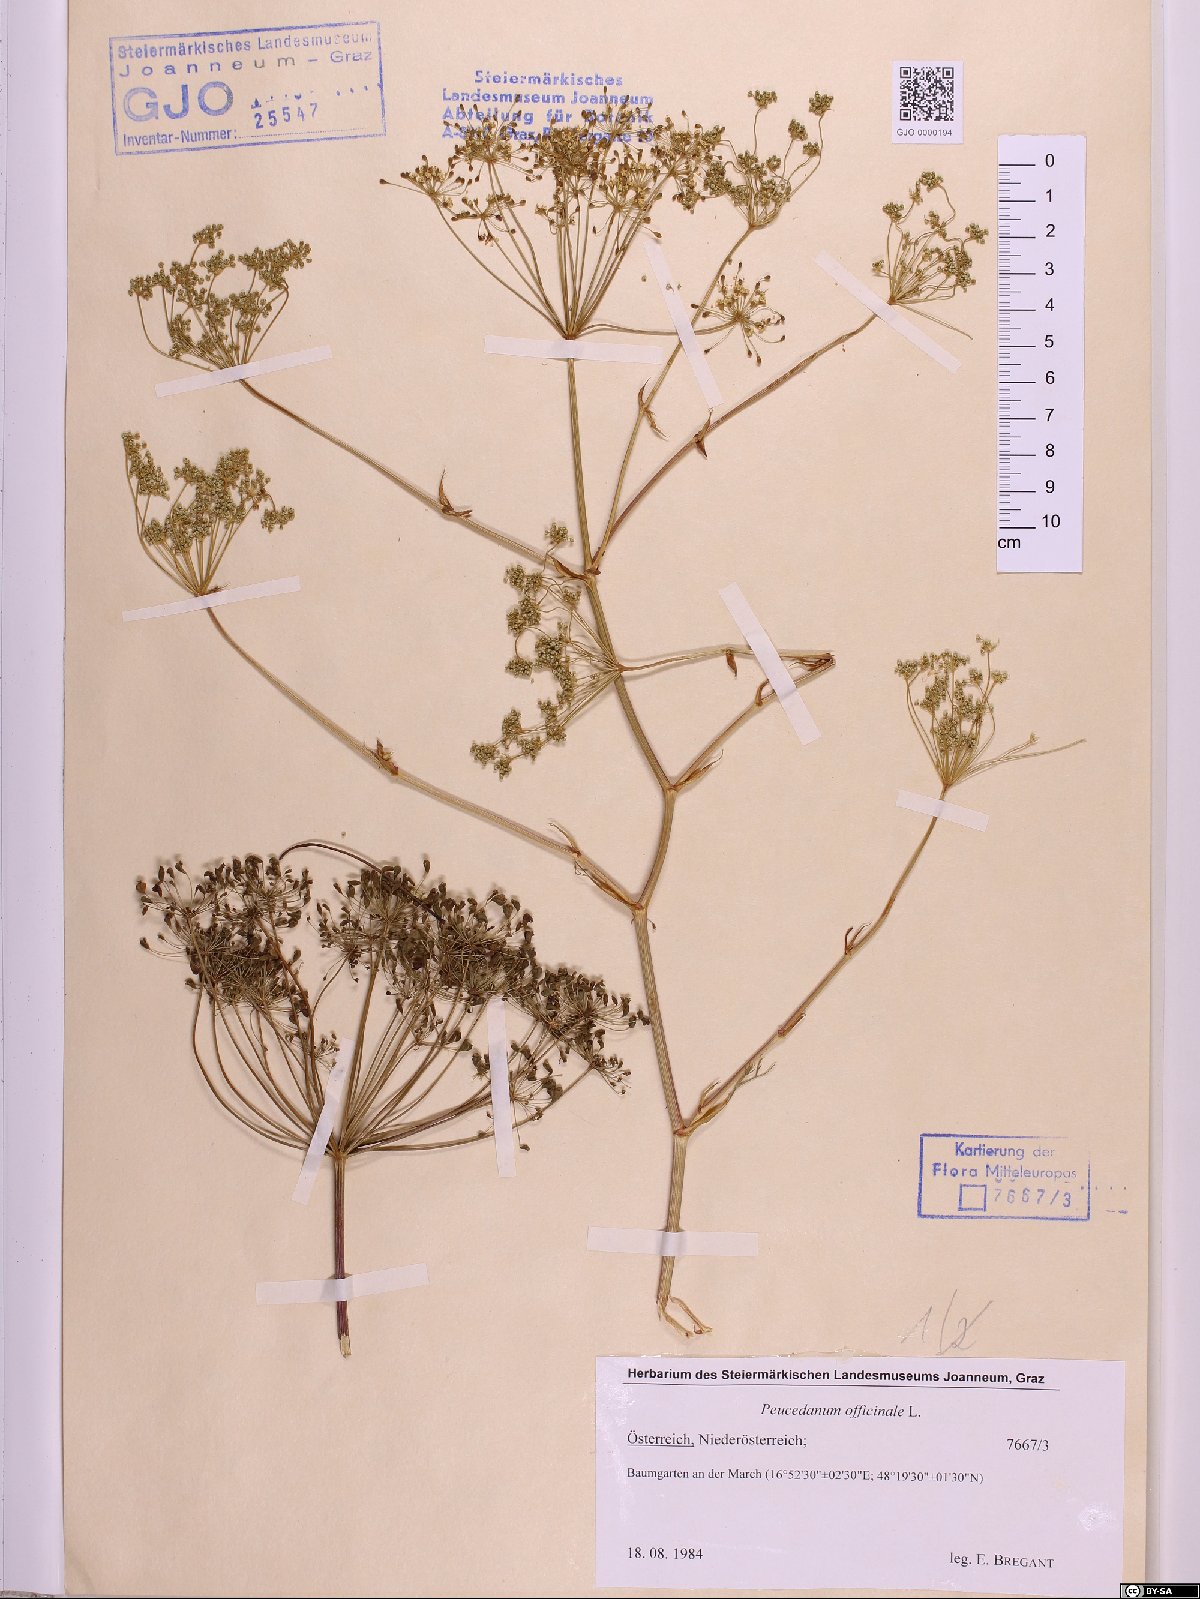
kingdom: Plantae
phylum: Tracheophyta
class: Magnoliopsida
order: Apiales
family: Apiaceae
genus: Peucedanum
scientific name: Peucedanum officinale
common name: Sulphurweed
